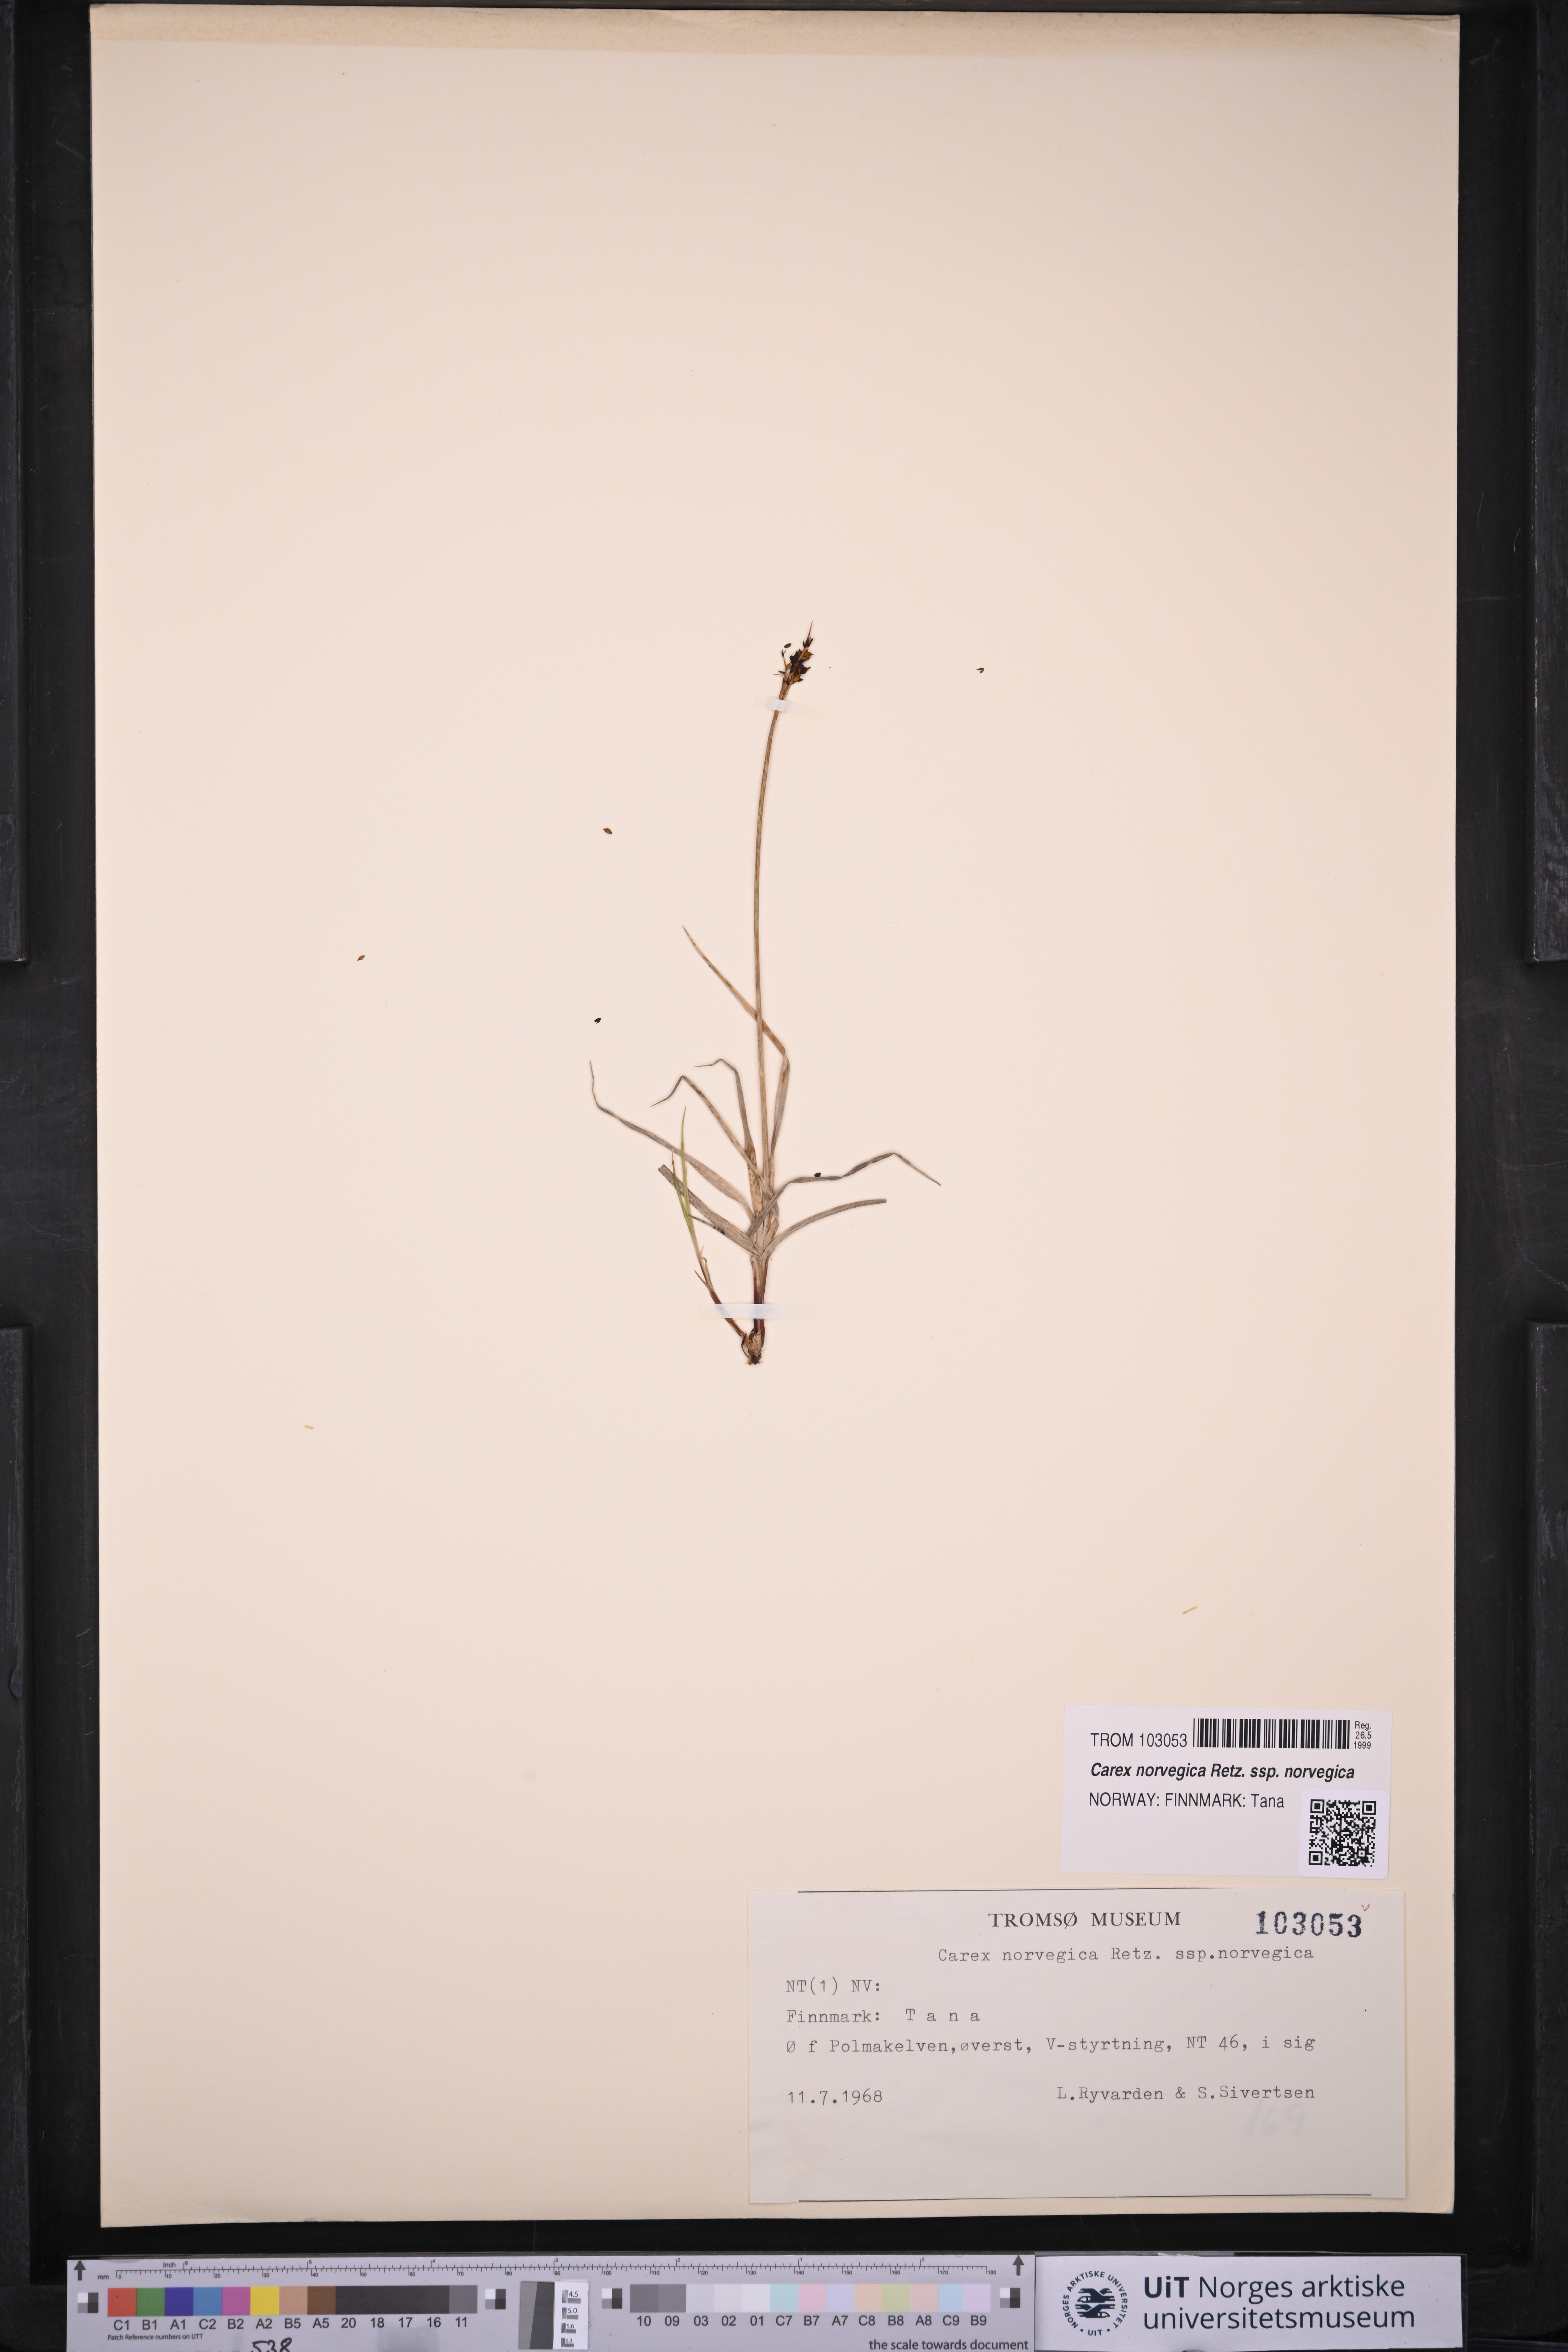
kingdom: Plantae
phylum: Tracheophyta
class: Liliopsida
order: Poales
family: Cyperaceae
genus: Carex
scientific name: Carex norvegica
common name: Close-headed alpine-sedge
